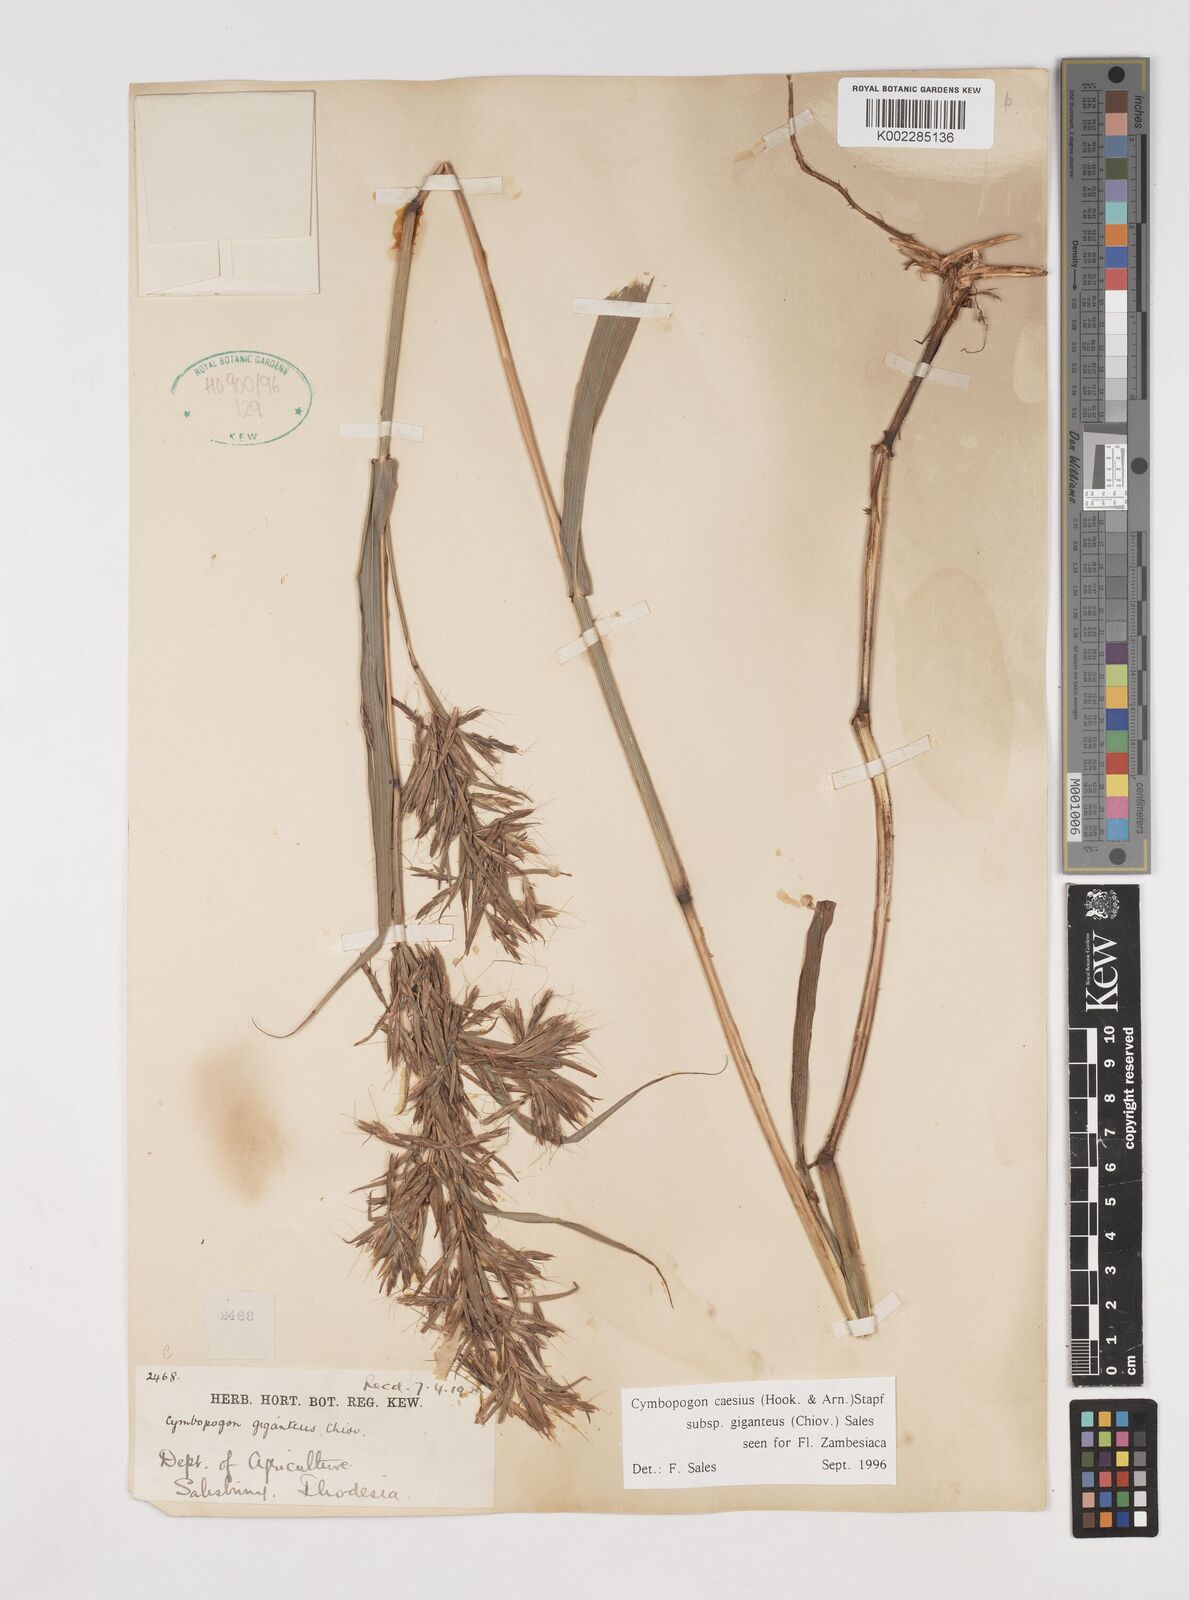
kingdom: Plantae
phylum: Tracheophyta
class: Liliopsida
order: Poales
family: Poaceae
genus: Cymbopogon
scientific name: Cymbopogon giganteus
